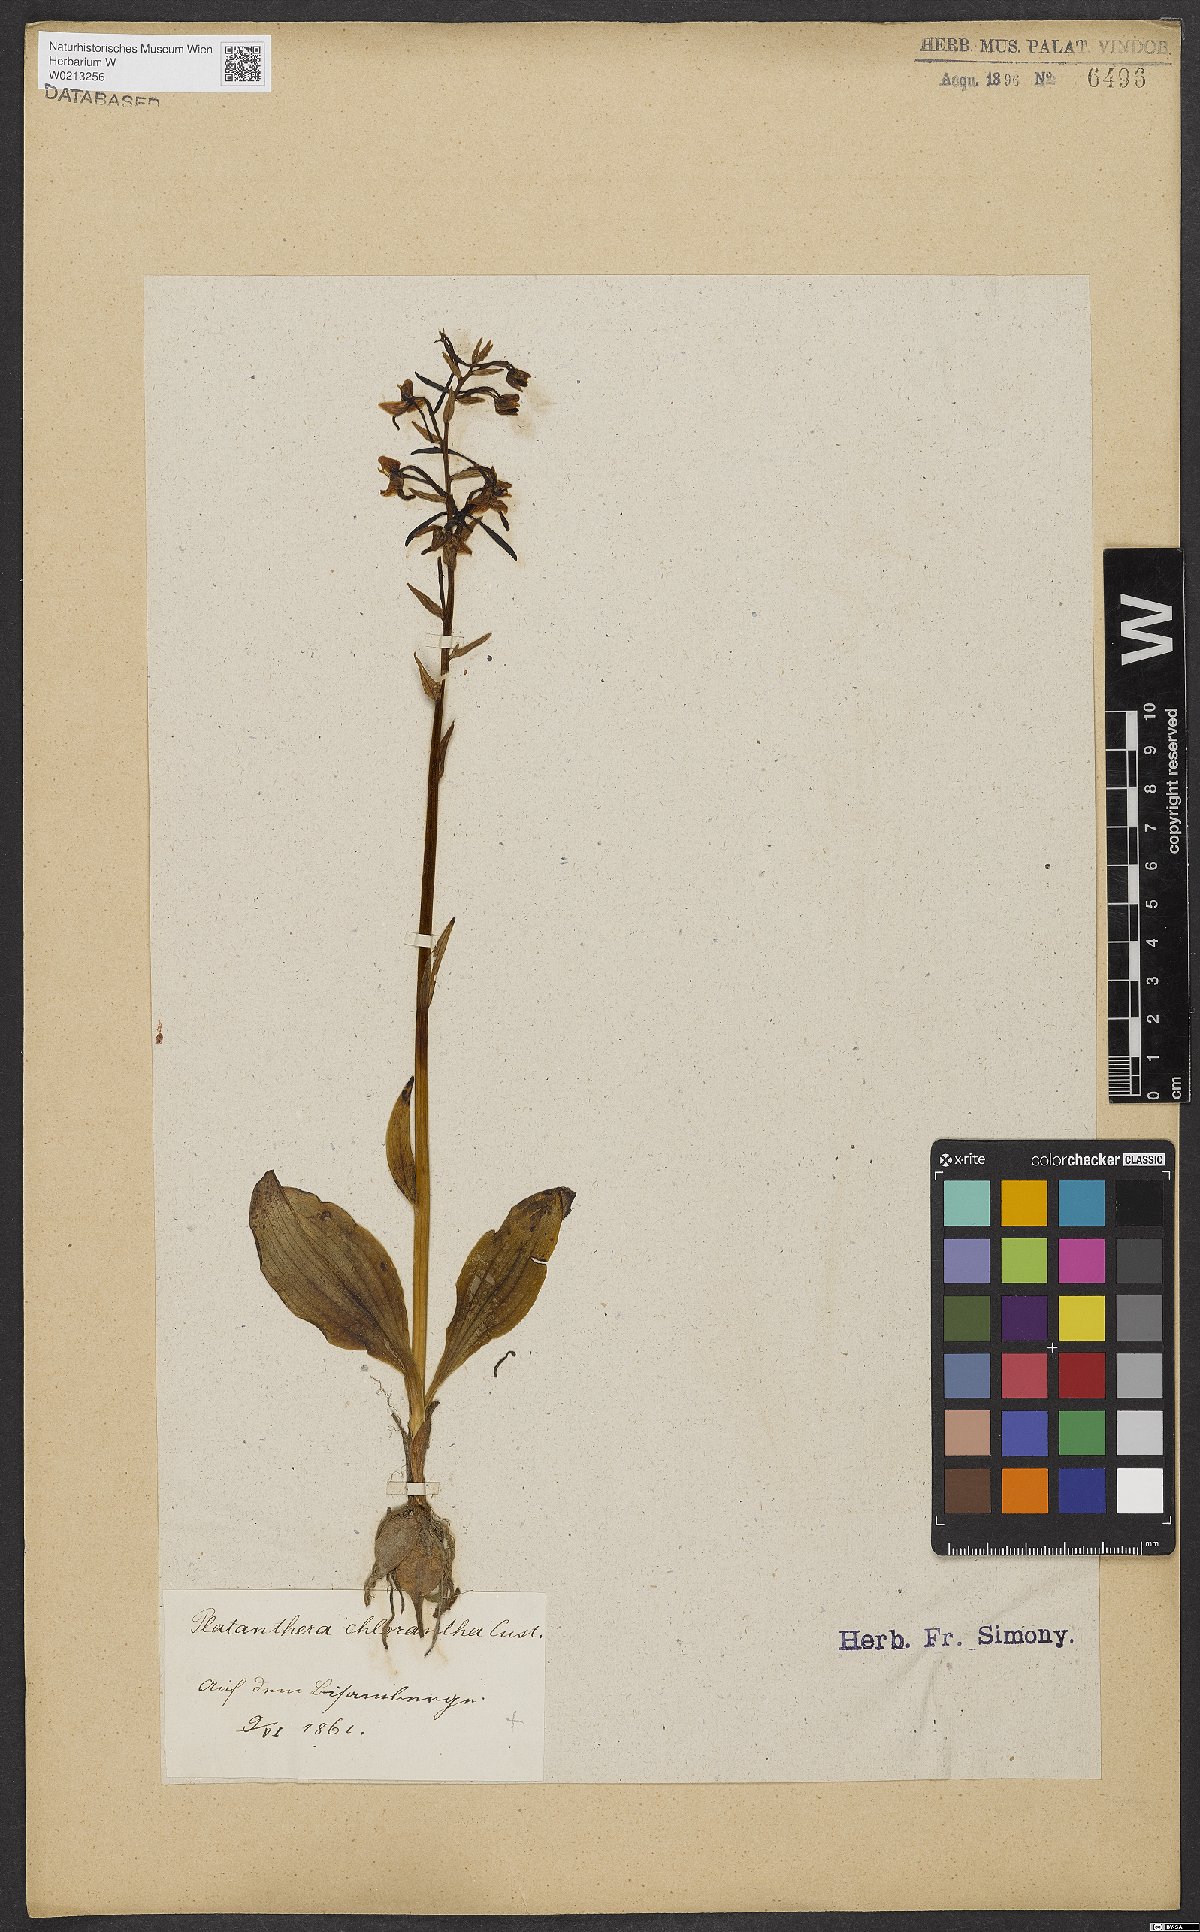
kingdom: Plantae
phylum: Tracheophyta
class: Liliopsida
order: Asparagales
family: Orchidaceae
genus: Platanthera
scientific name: Platanthera chlorantha
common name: Greater butterfly-orchid
